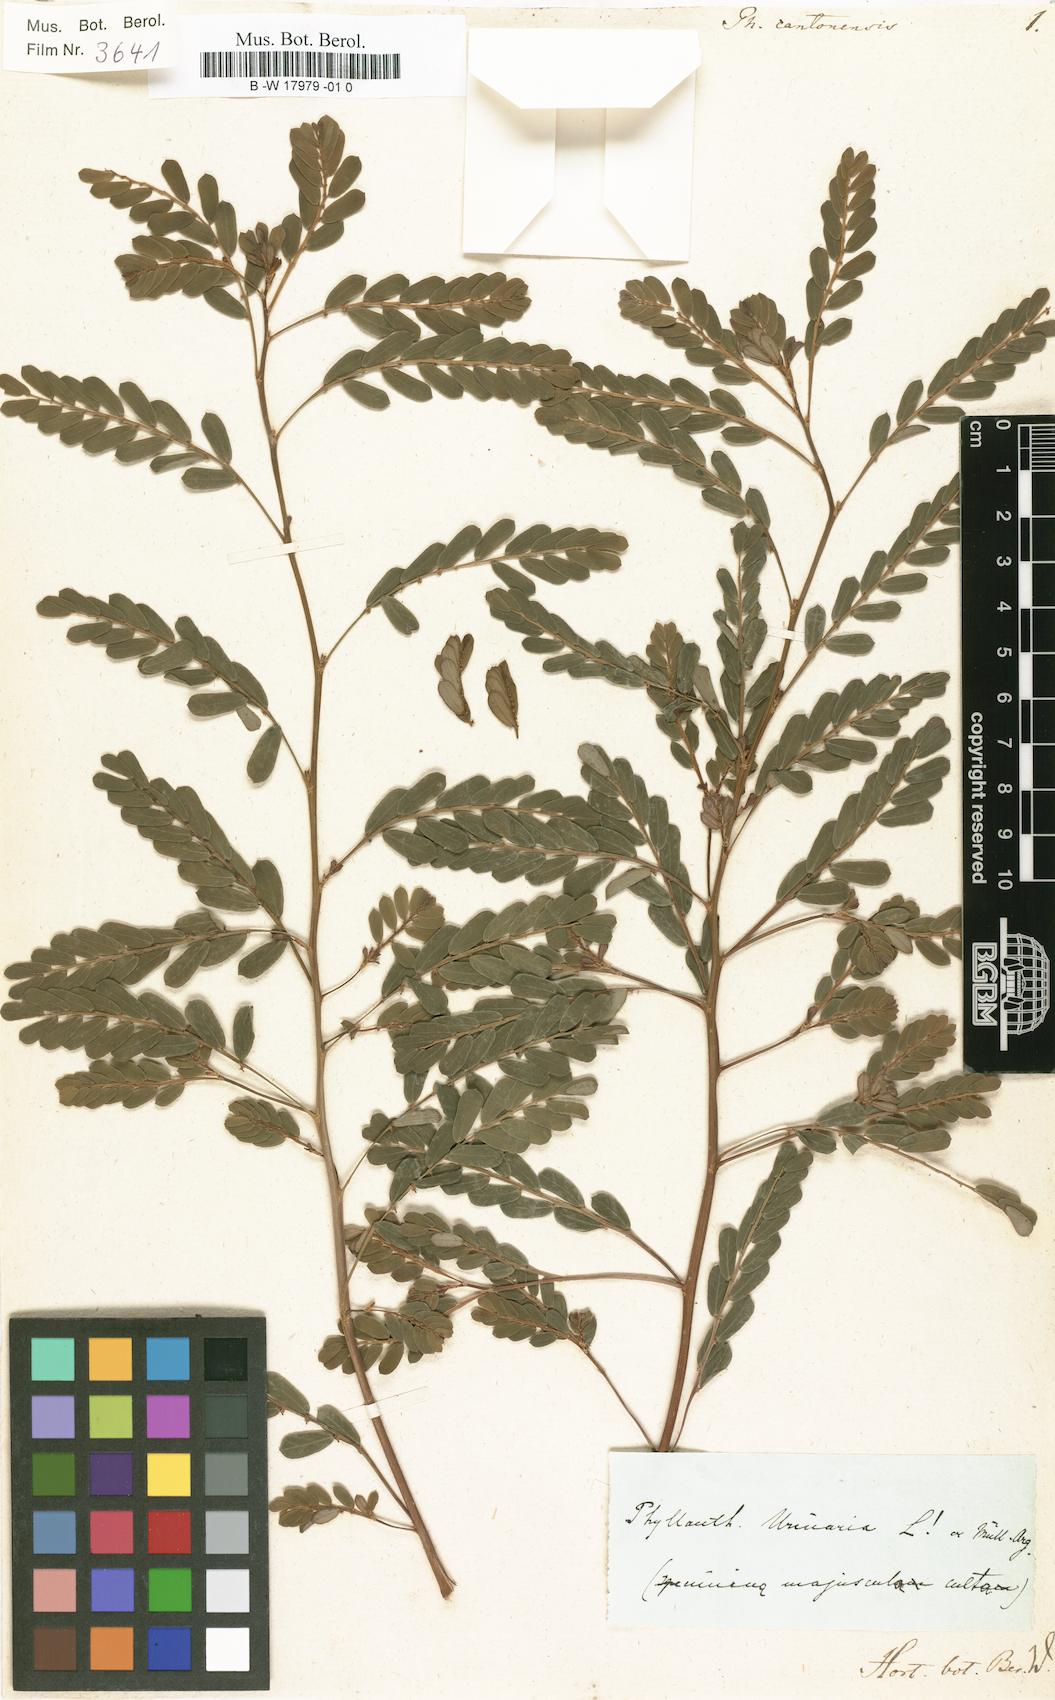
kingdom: Plantae
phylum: Tracheophyta
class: Magnoliopsida
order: Malpighiales
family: Phyllanthaceae
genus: Phyllanthus
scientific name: Phyllanthus cantoniensis
